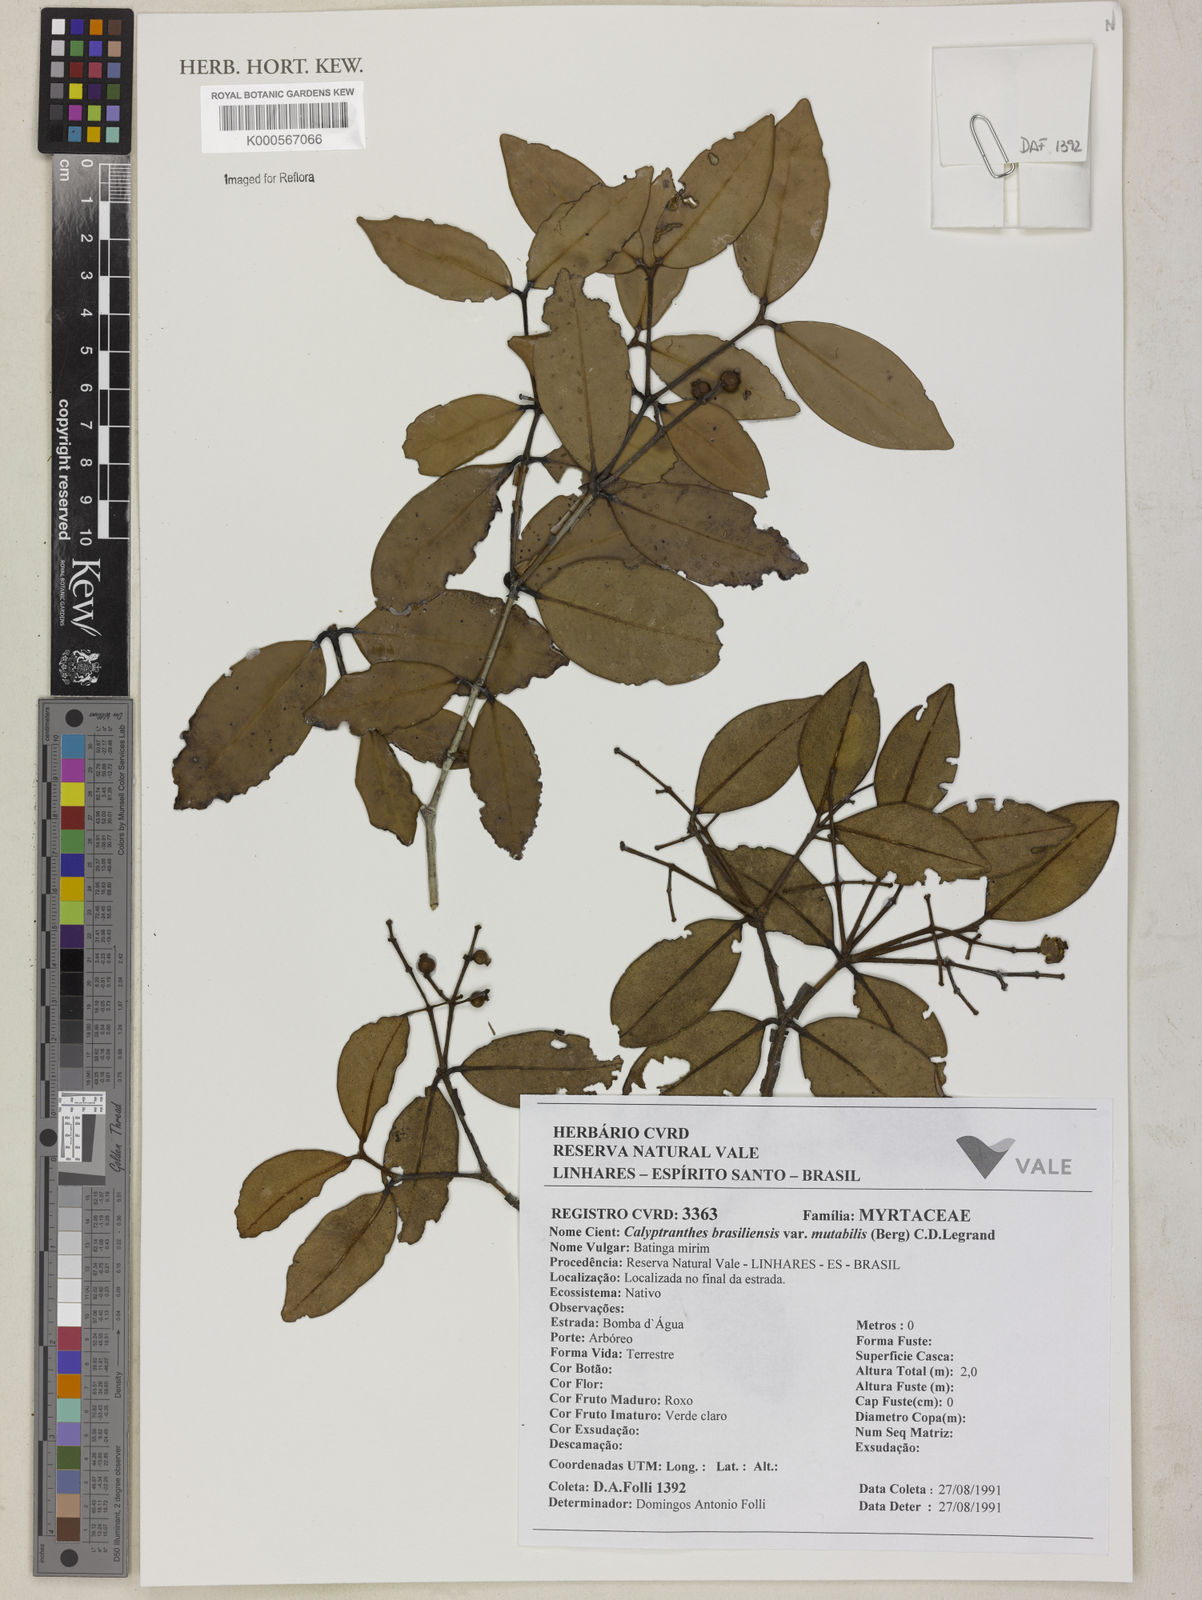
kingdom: Plantae
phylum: Tracheophyta
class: Magnoliopsida
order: Myrtales
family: Myrtaceae
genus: Myrcia
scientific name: Myrcia neobrasiliensis
